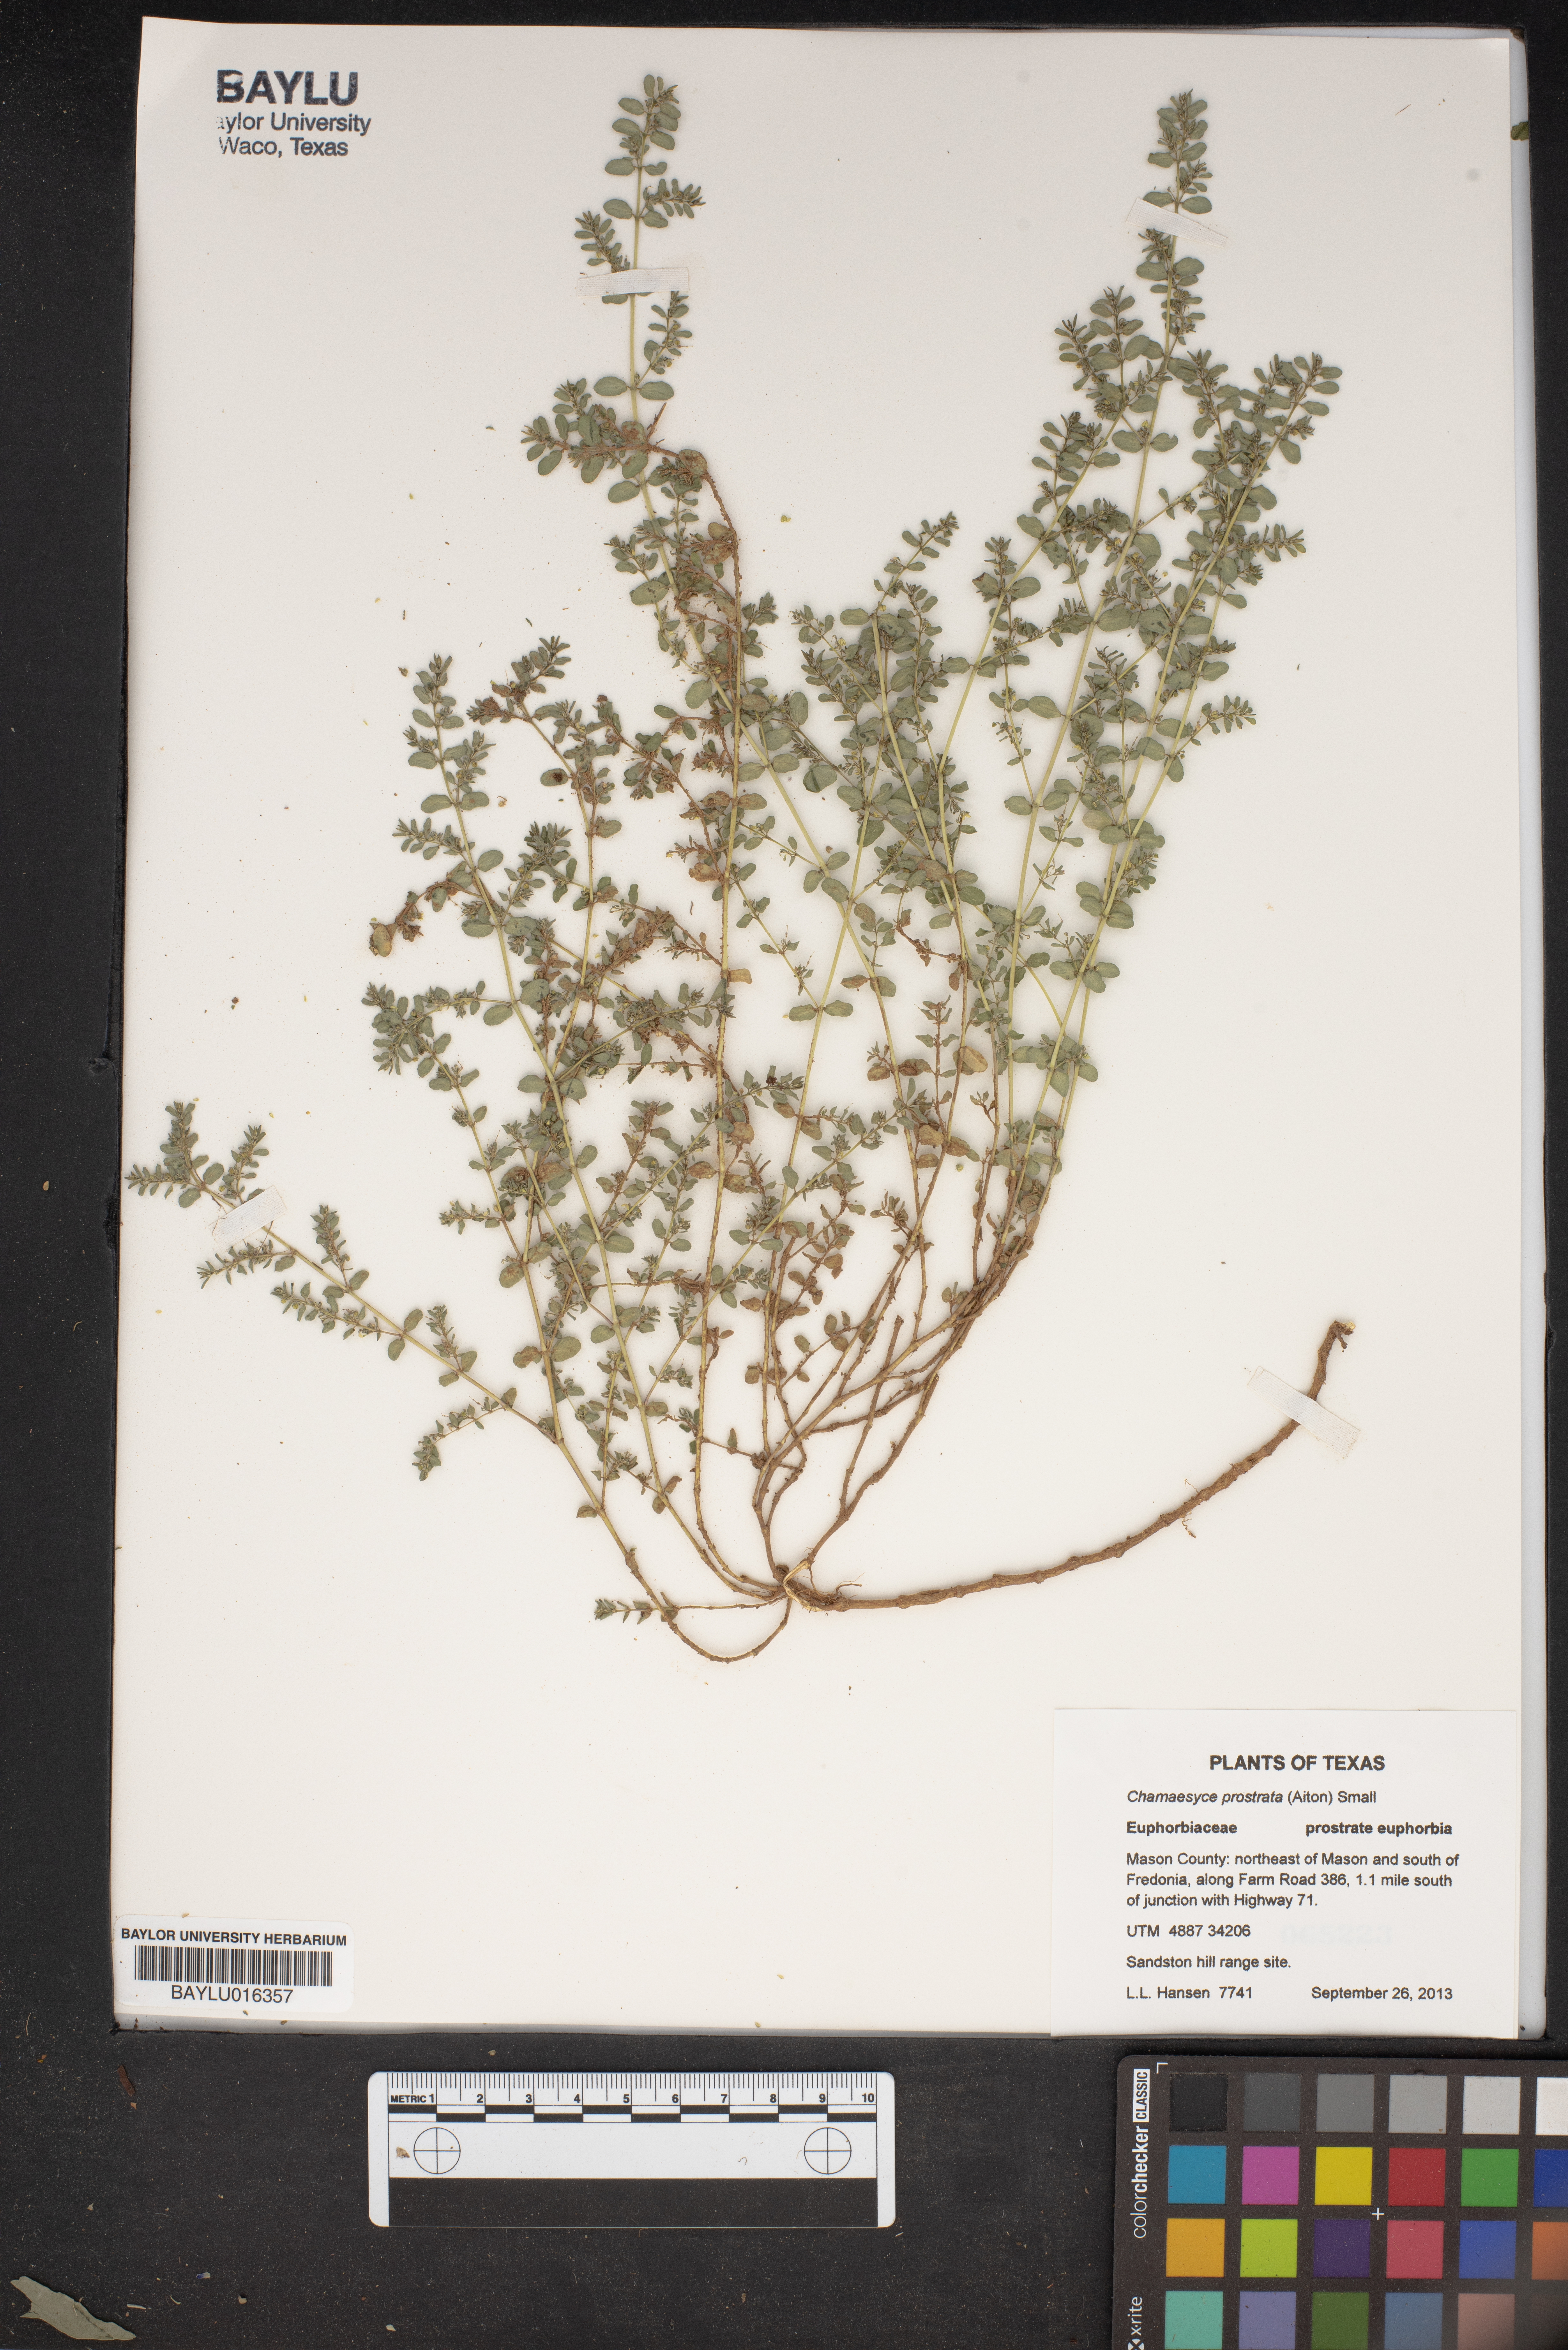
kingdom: Plantae
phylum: Tracheophyta
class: Magnoliopsida
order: Malpighiales
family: Euphorbiaceae
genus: Euphorbia
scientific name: Euphorbia prostrata
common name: Prostrate sandmat
